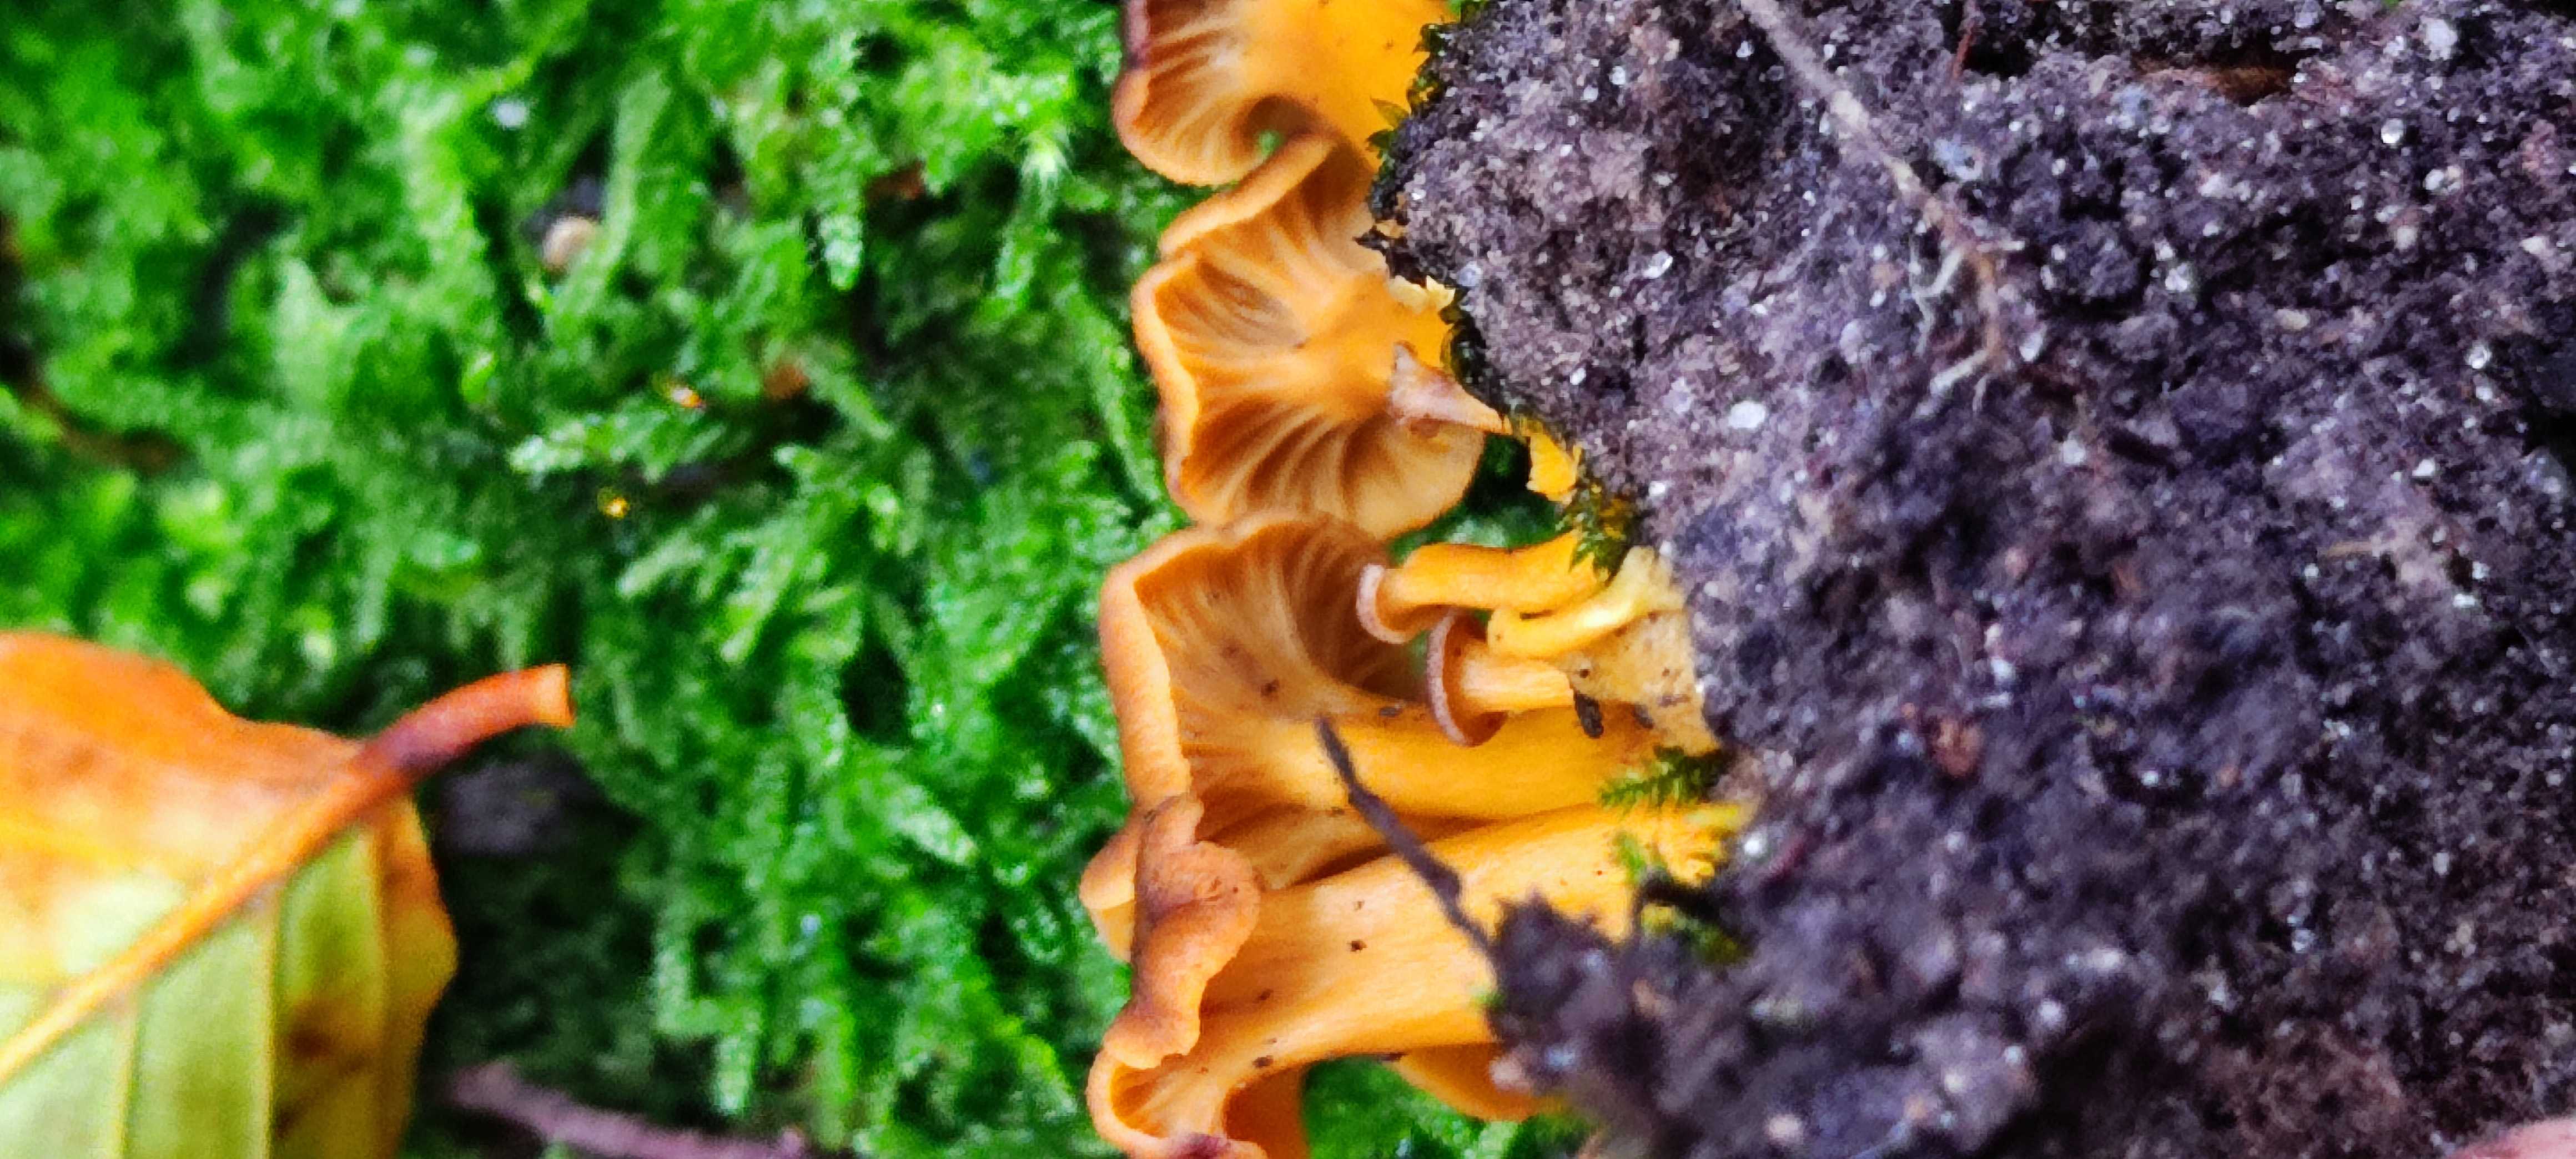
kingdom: Fungi
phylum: Basidiomycota
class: Agaricomycetes
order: Cantharellales
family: Hydnaceae
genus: Craterellus
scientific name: Craterellus tubaeformis
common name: tragt-kantarel
